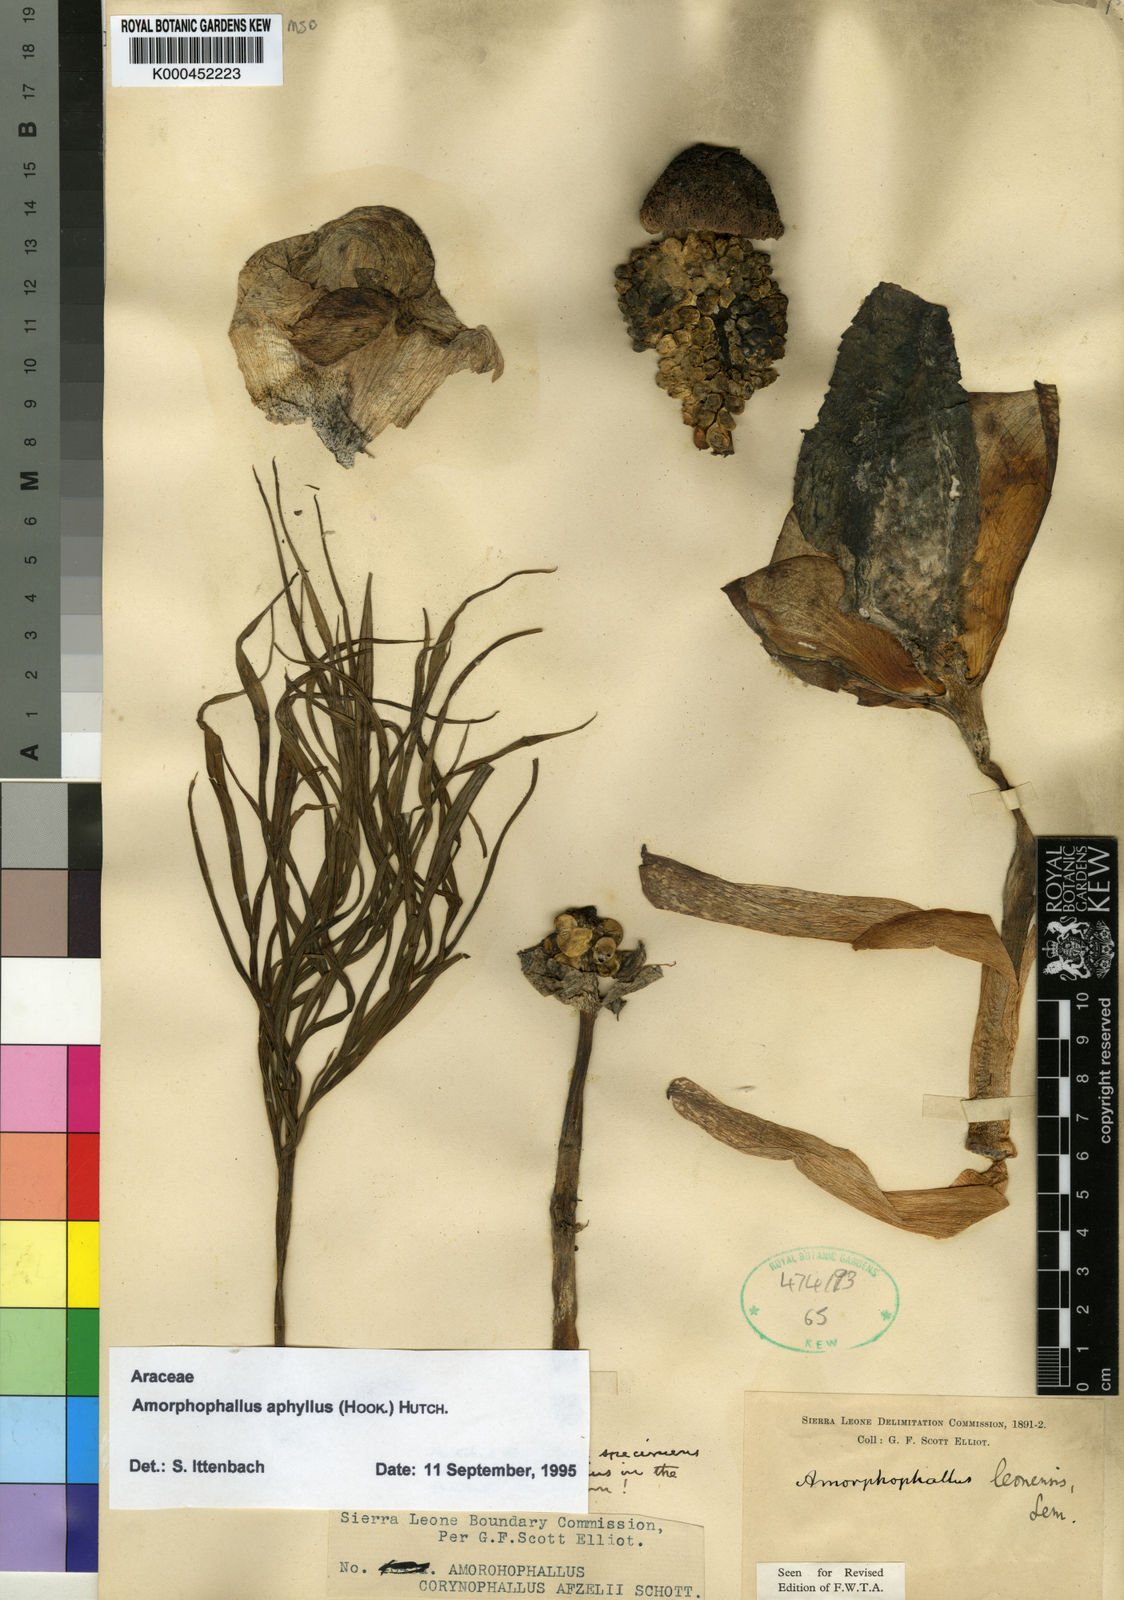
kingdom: Plantae
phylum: Tracheophyta
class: Liliopsida
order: Alismatales
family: Araceae
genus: Amorphophallus
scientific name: Amorphophallus aphyllus
